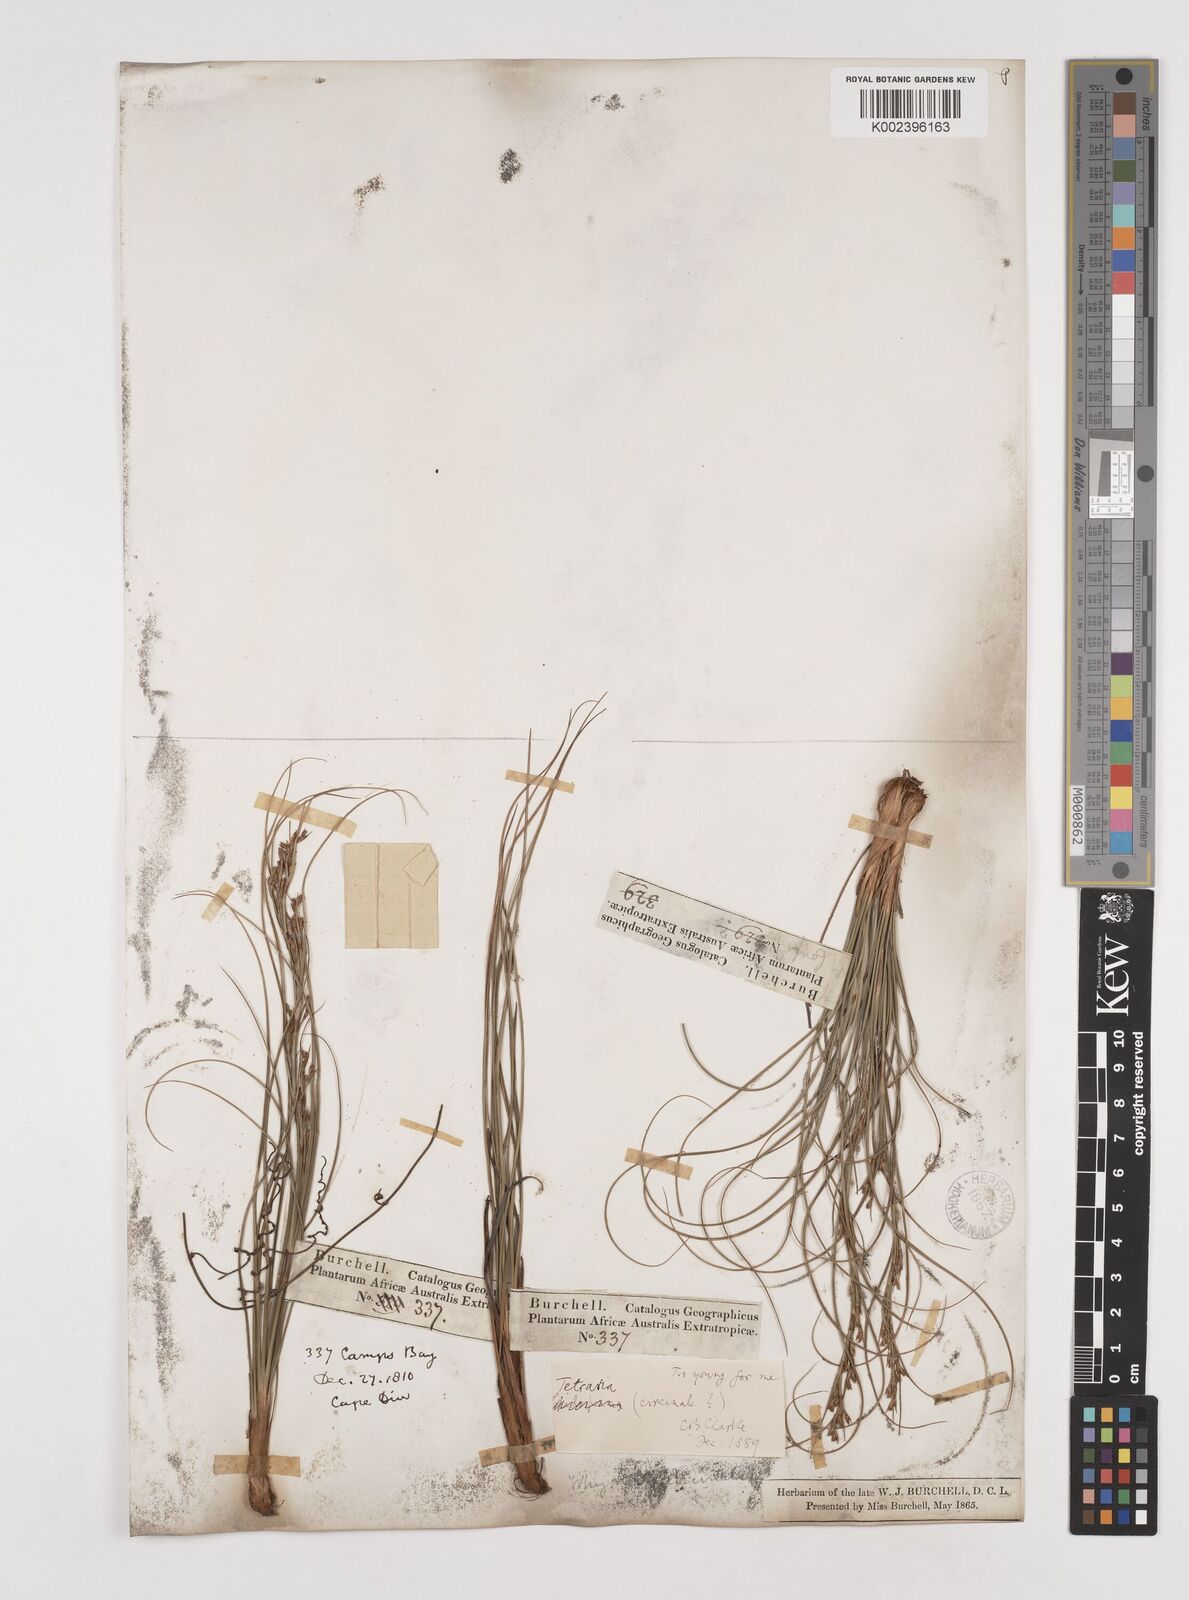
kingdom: Plantae
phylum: Tracheophyta
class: Liliopsida
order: Poales
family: Cyperaceae
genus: Tetraria
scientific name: Tetraria microstachys
